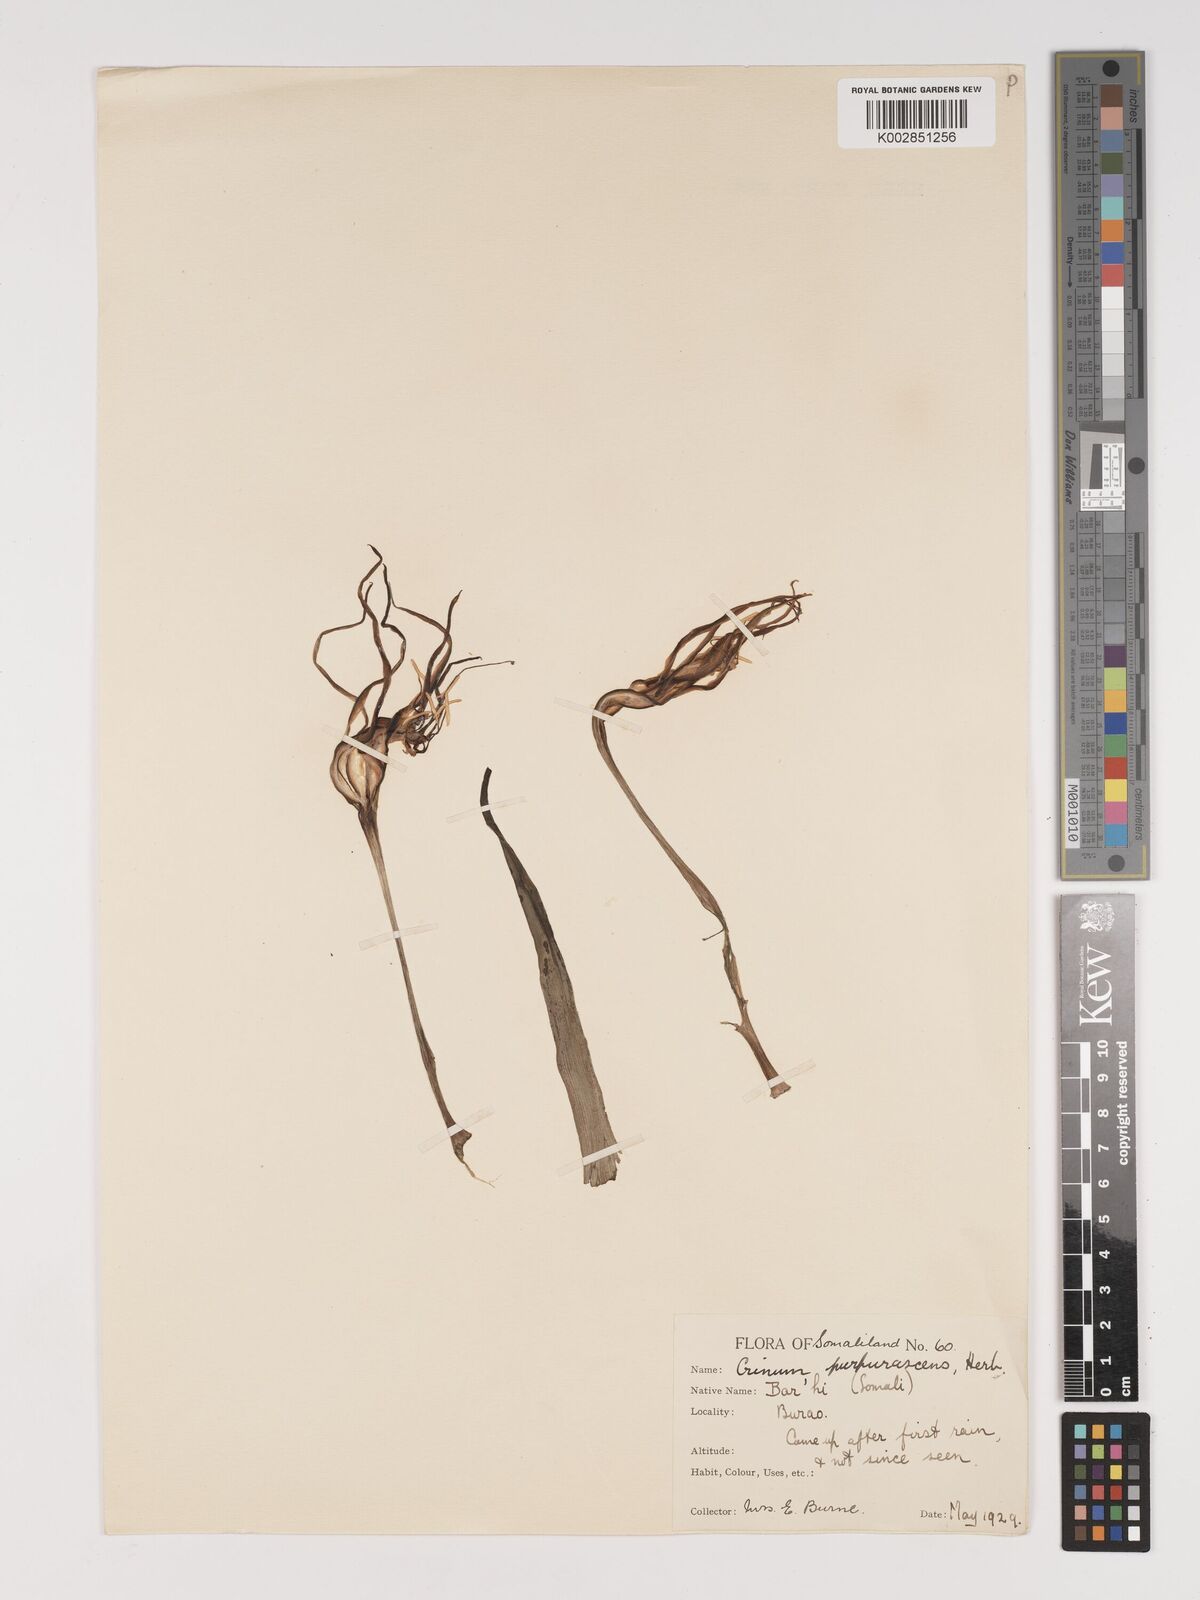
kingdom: Plantae
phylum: Tracheophyta
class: Liliopsida
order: Asparagales
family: Amaryllidaceae
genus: Crinum
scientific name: Crinum purpurascens
